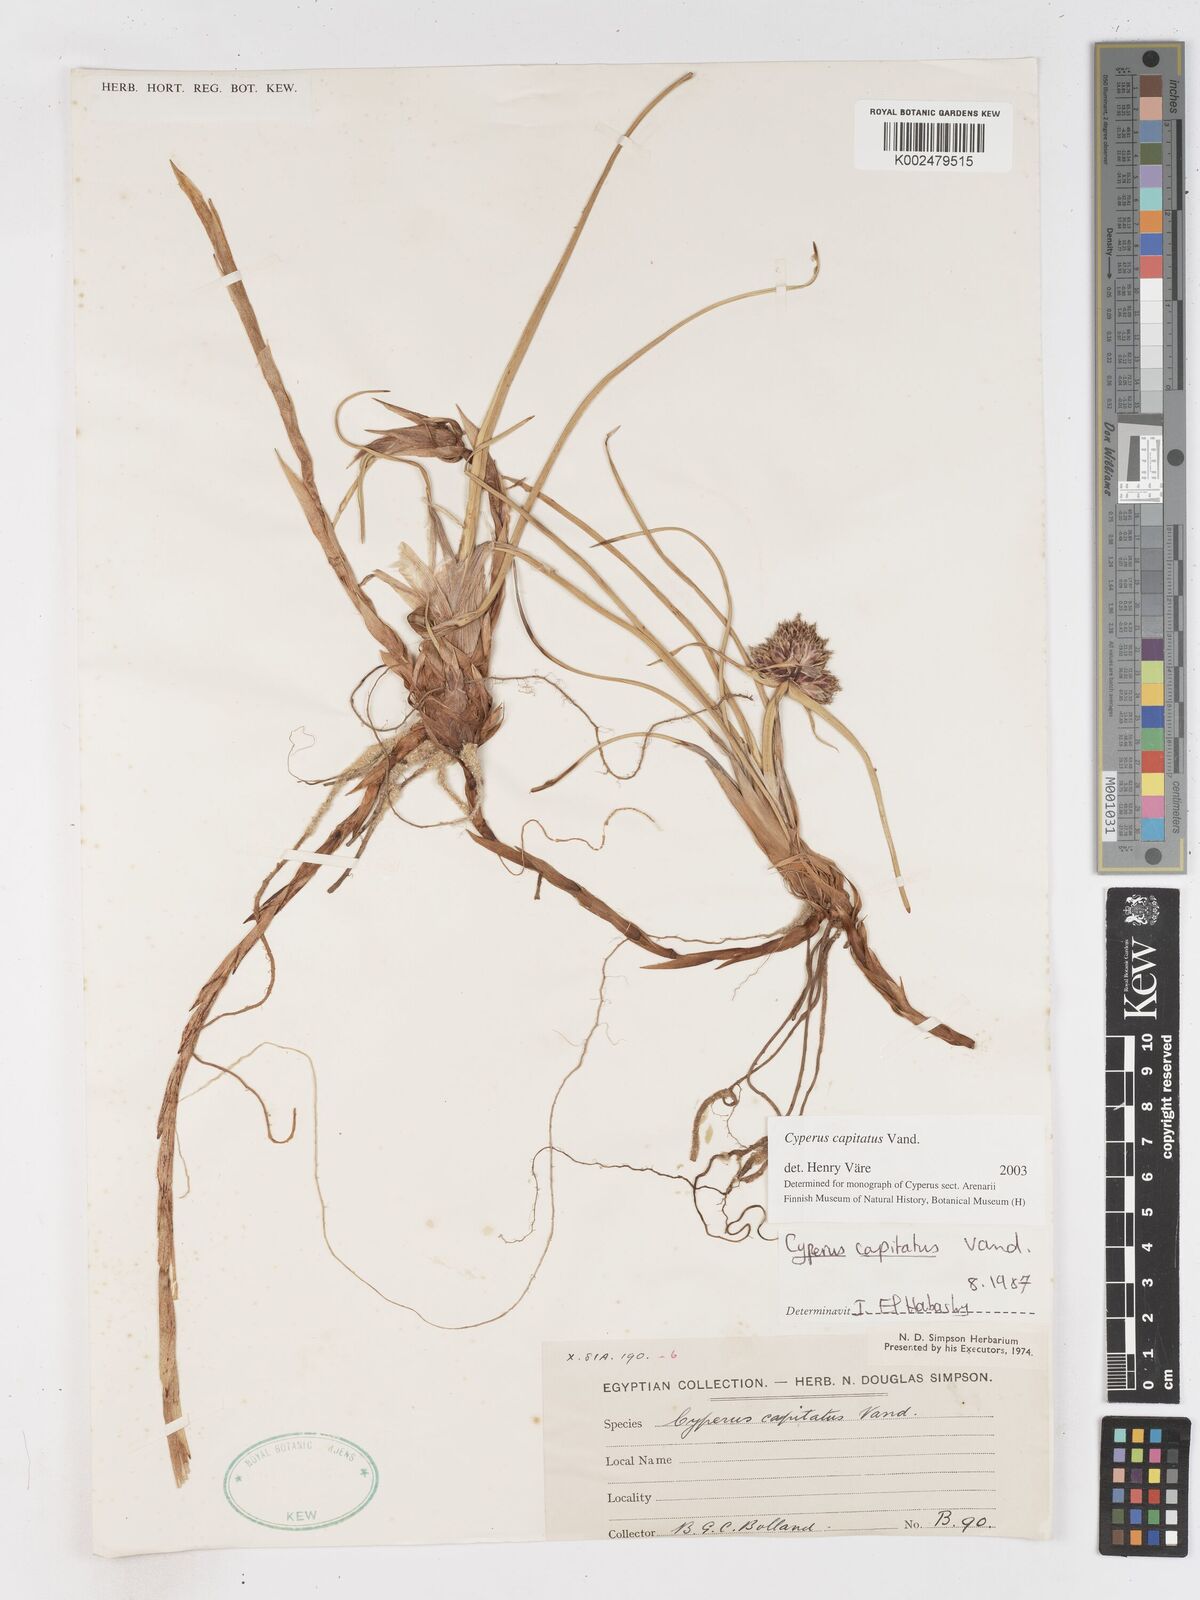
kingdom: Plantae
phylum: Tracheophyta
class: Liliopsida
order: Poales
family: Cyperaceae
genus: Cyperus
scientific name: Cyperus capitatus
